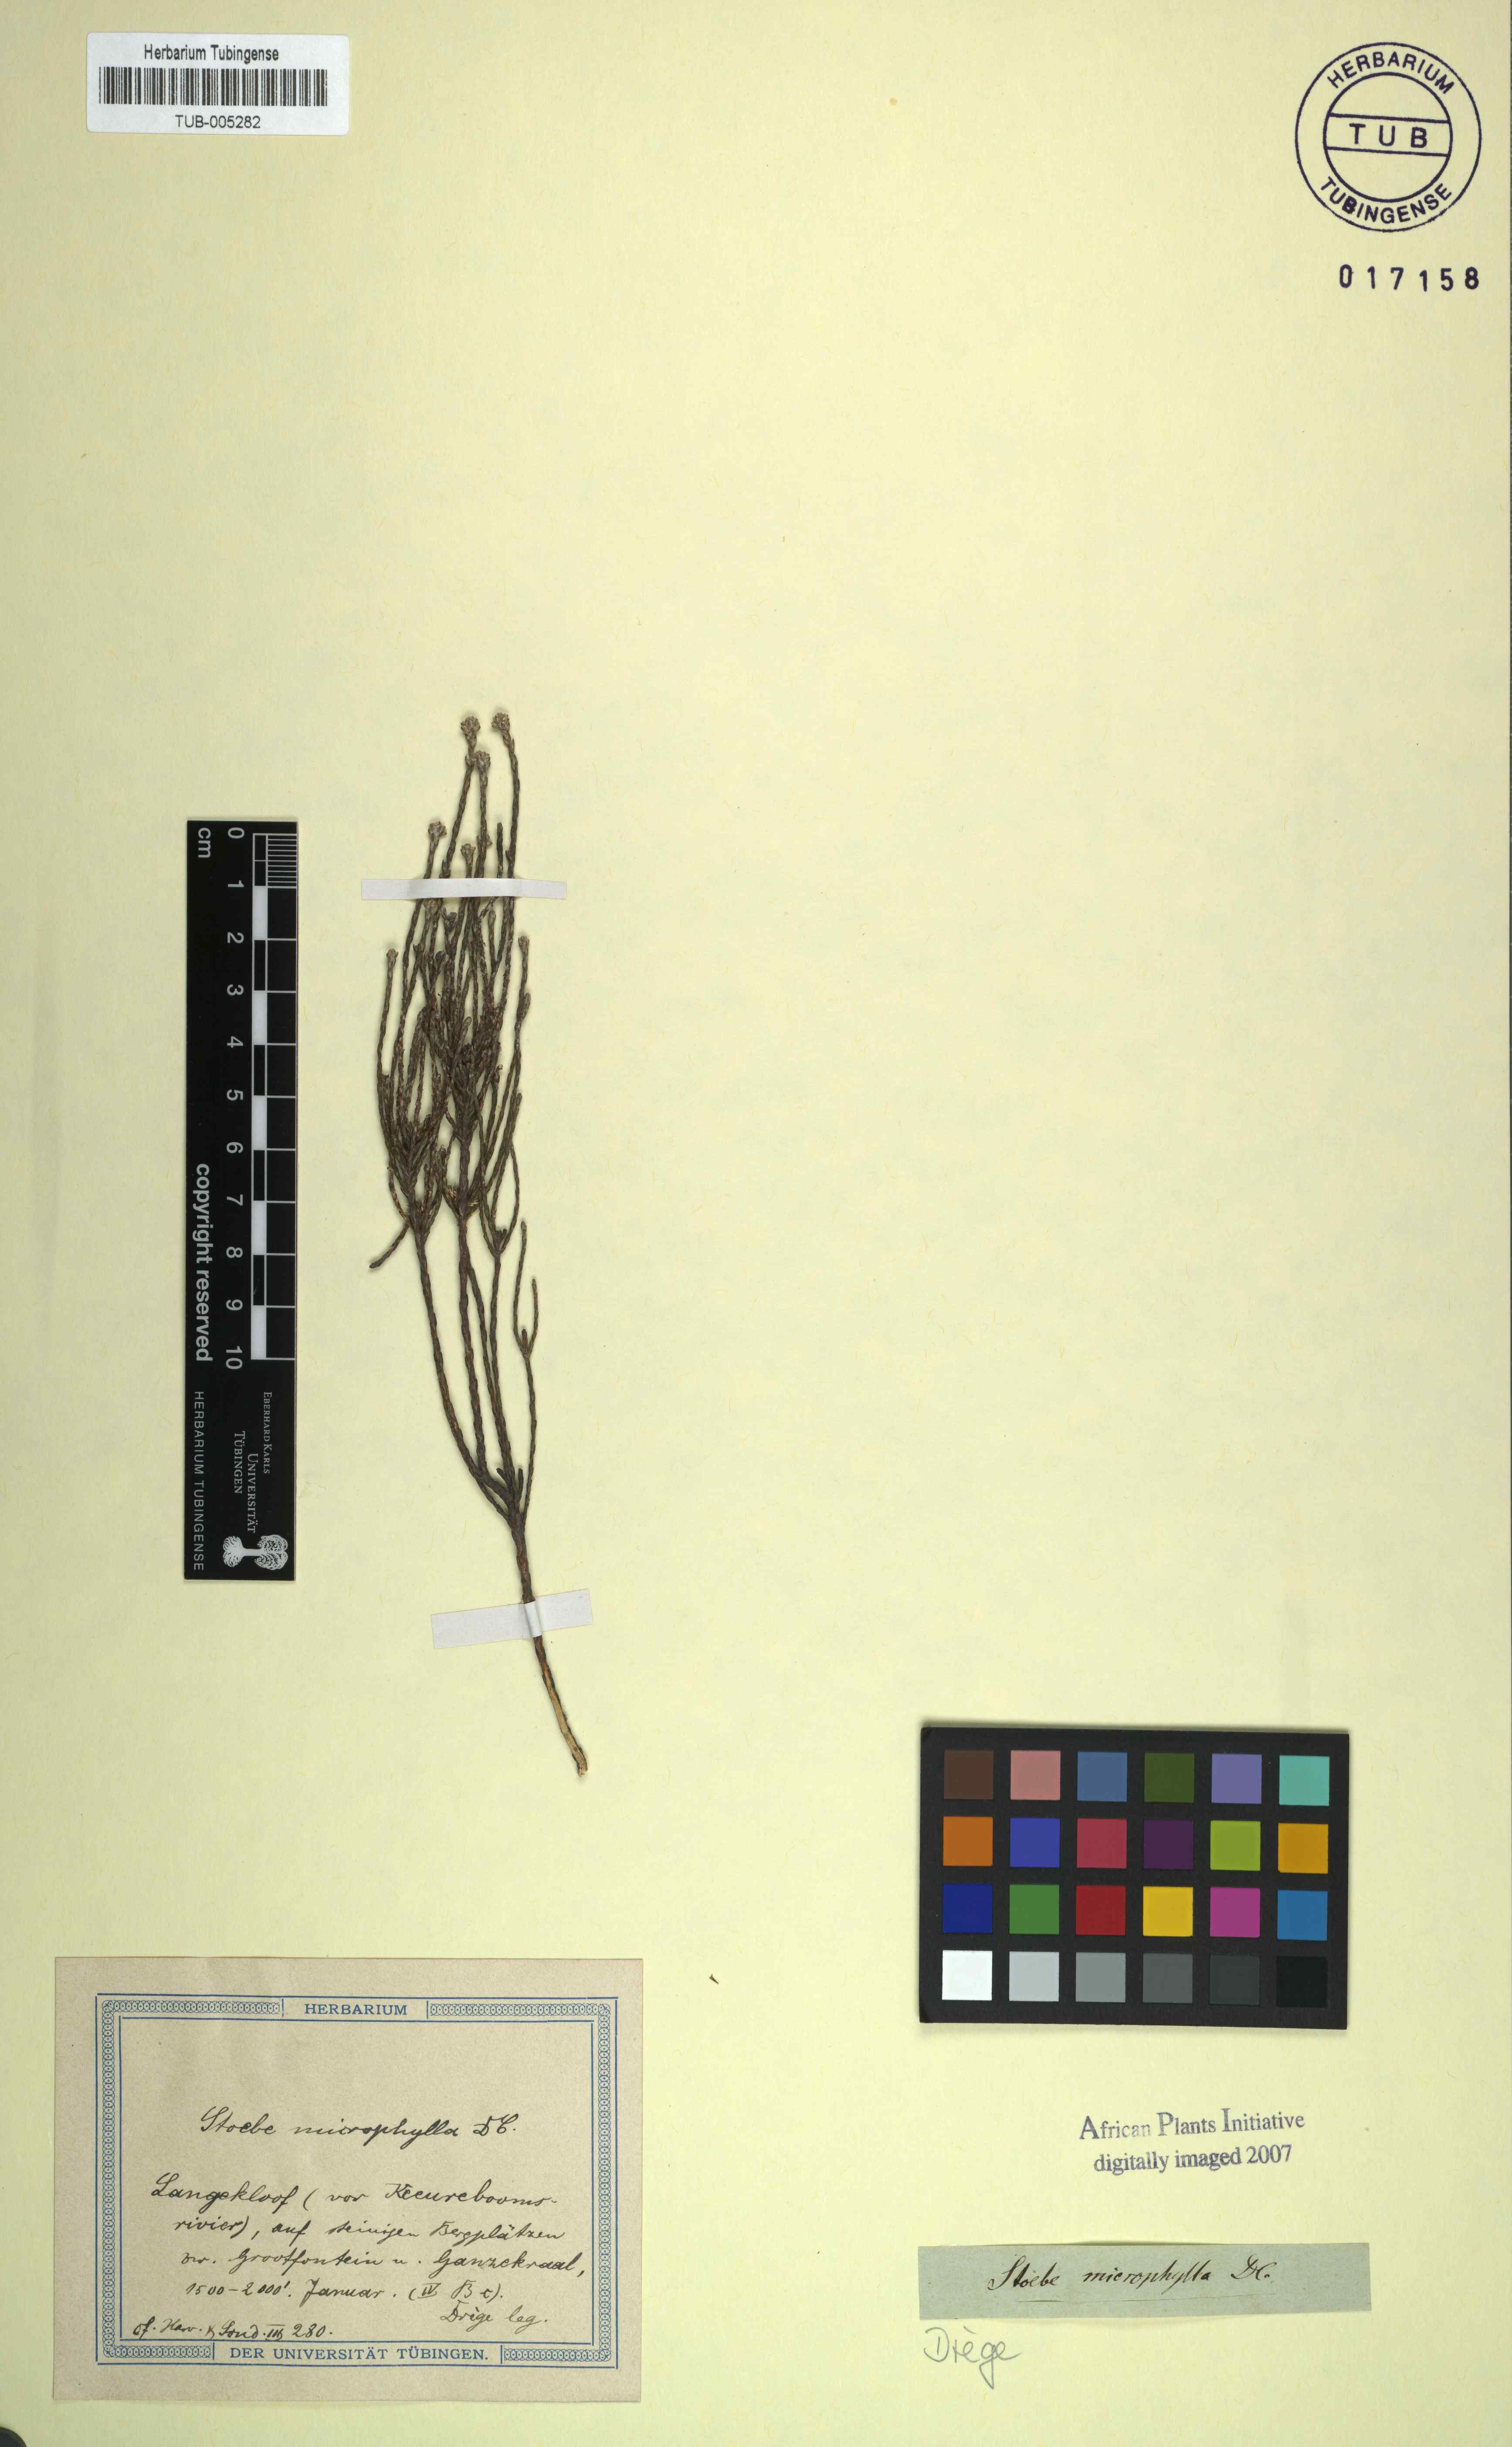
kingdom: Plantae
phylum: Tracheophyta
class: Magnoliopsida
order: Asterales
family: Asteraceae
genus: Stoebe
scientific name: Stoebe microphylla
